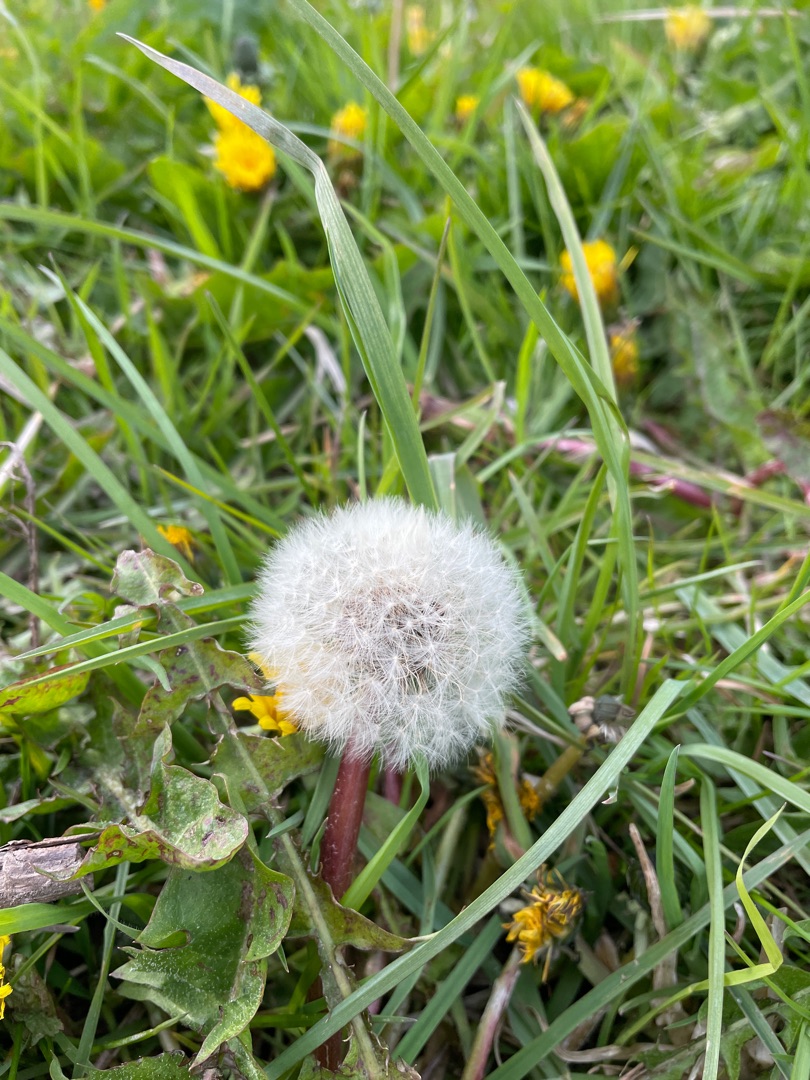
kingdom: Plantae
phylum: Tracheophyta
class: Magnoliopsida
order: Asterales
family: Asteraceae
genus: Taraxacum
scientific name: Taraxacum
